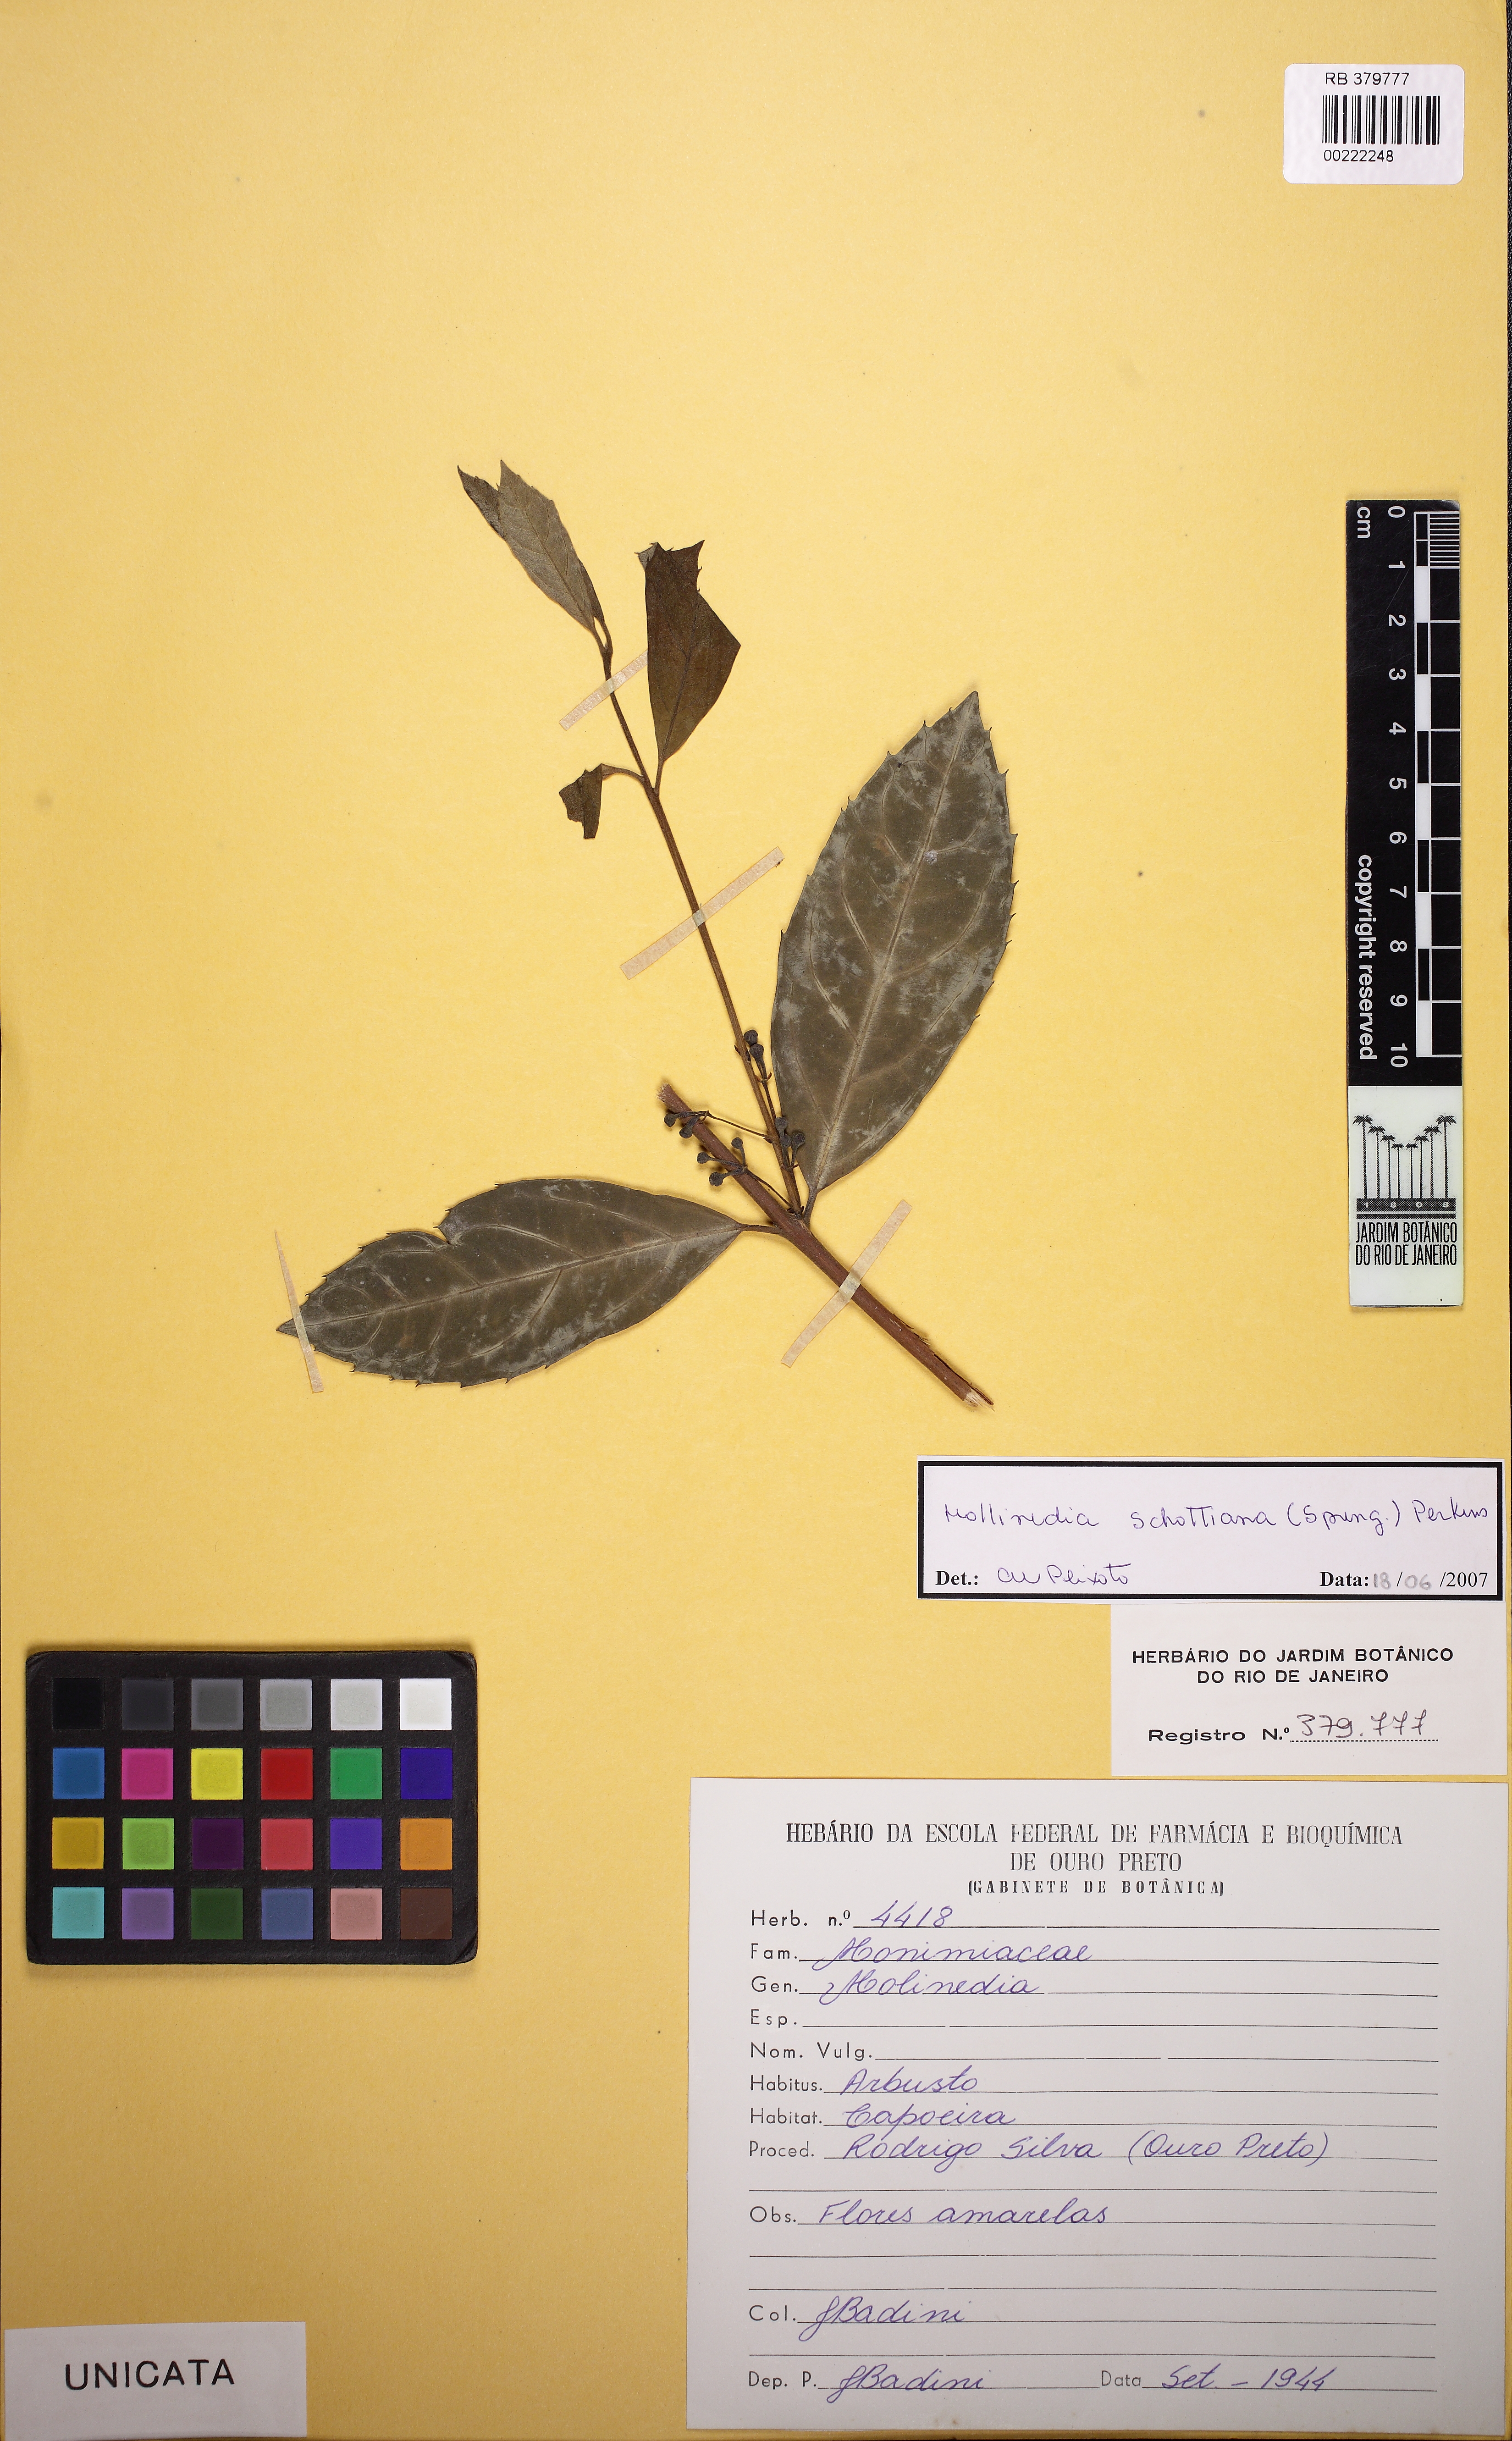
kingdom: Plantae
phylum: Tracheophyta
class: Magnoliopsida
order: Laurales
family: Monimiaceae
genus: Mollinedia
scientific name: Mollinedia umbellata
